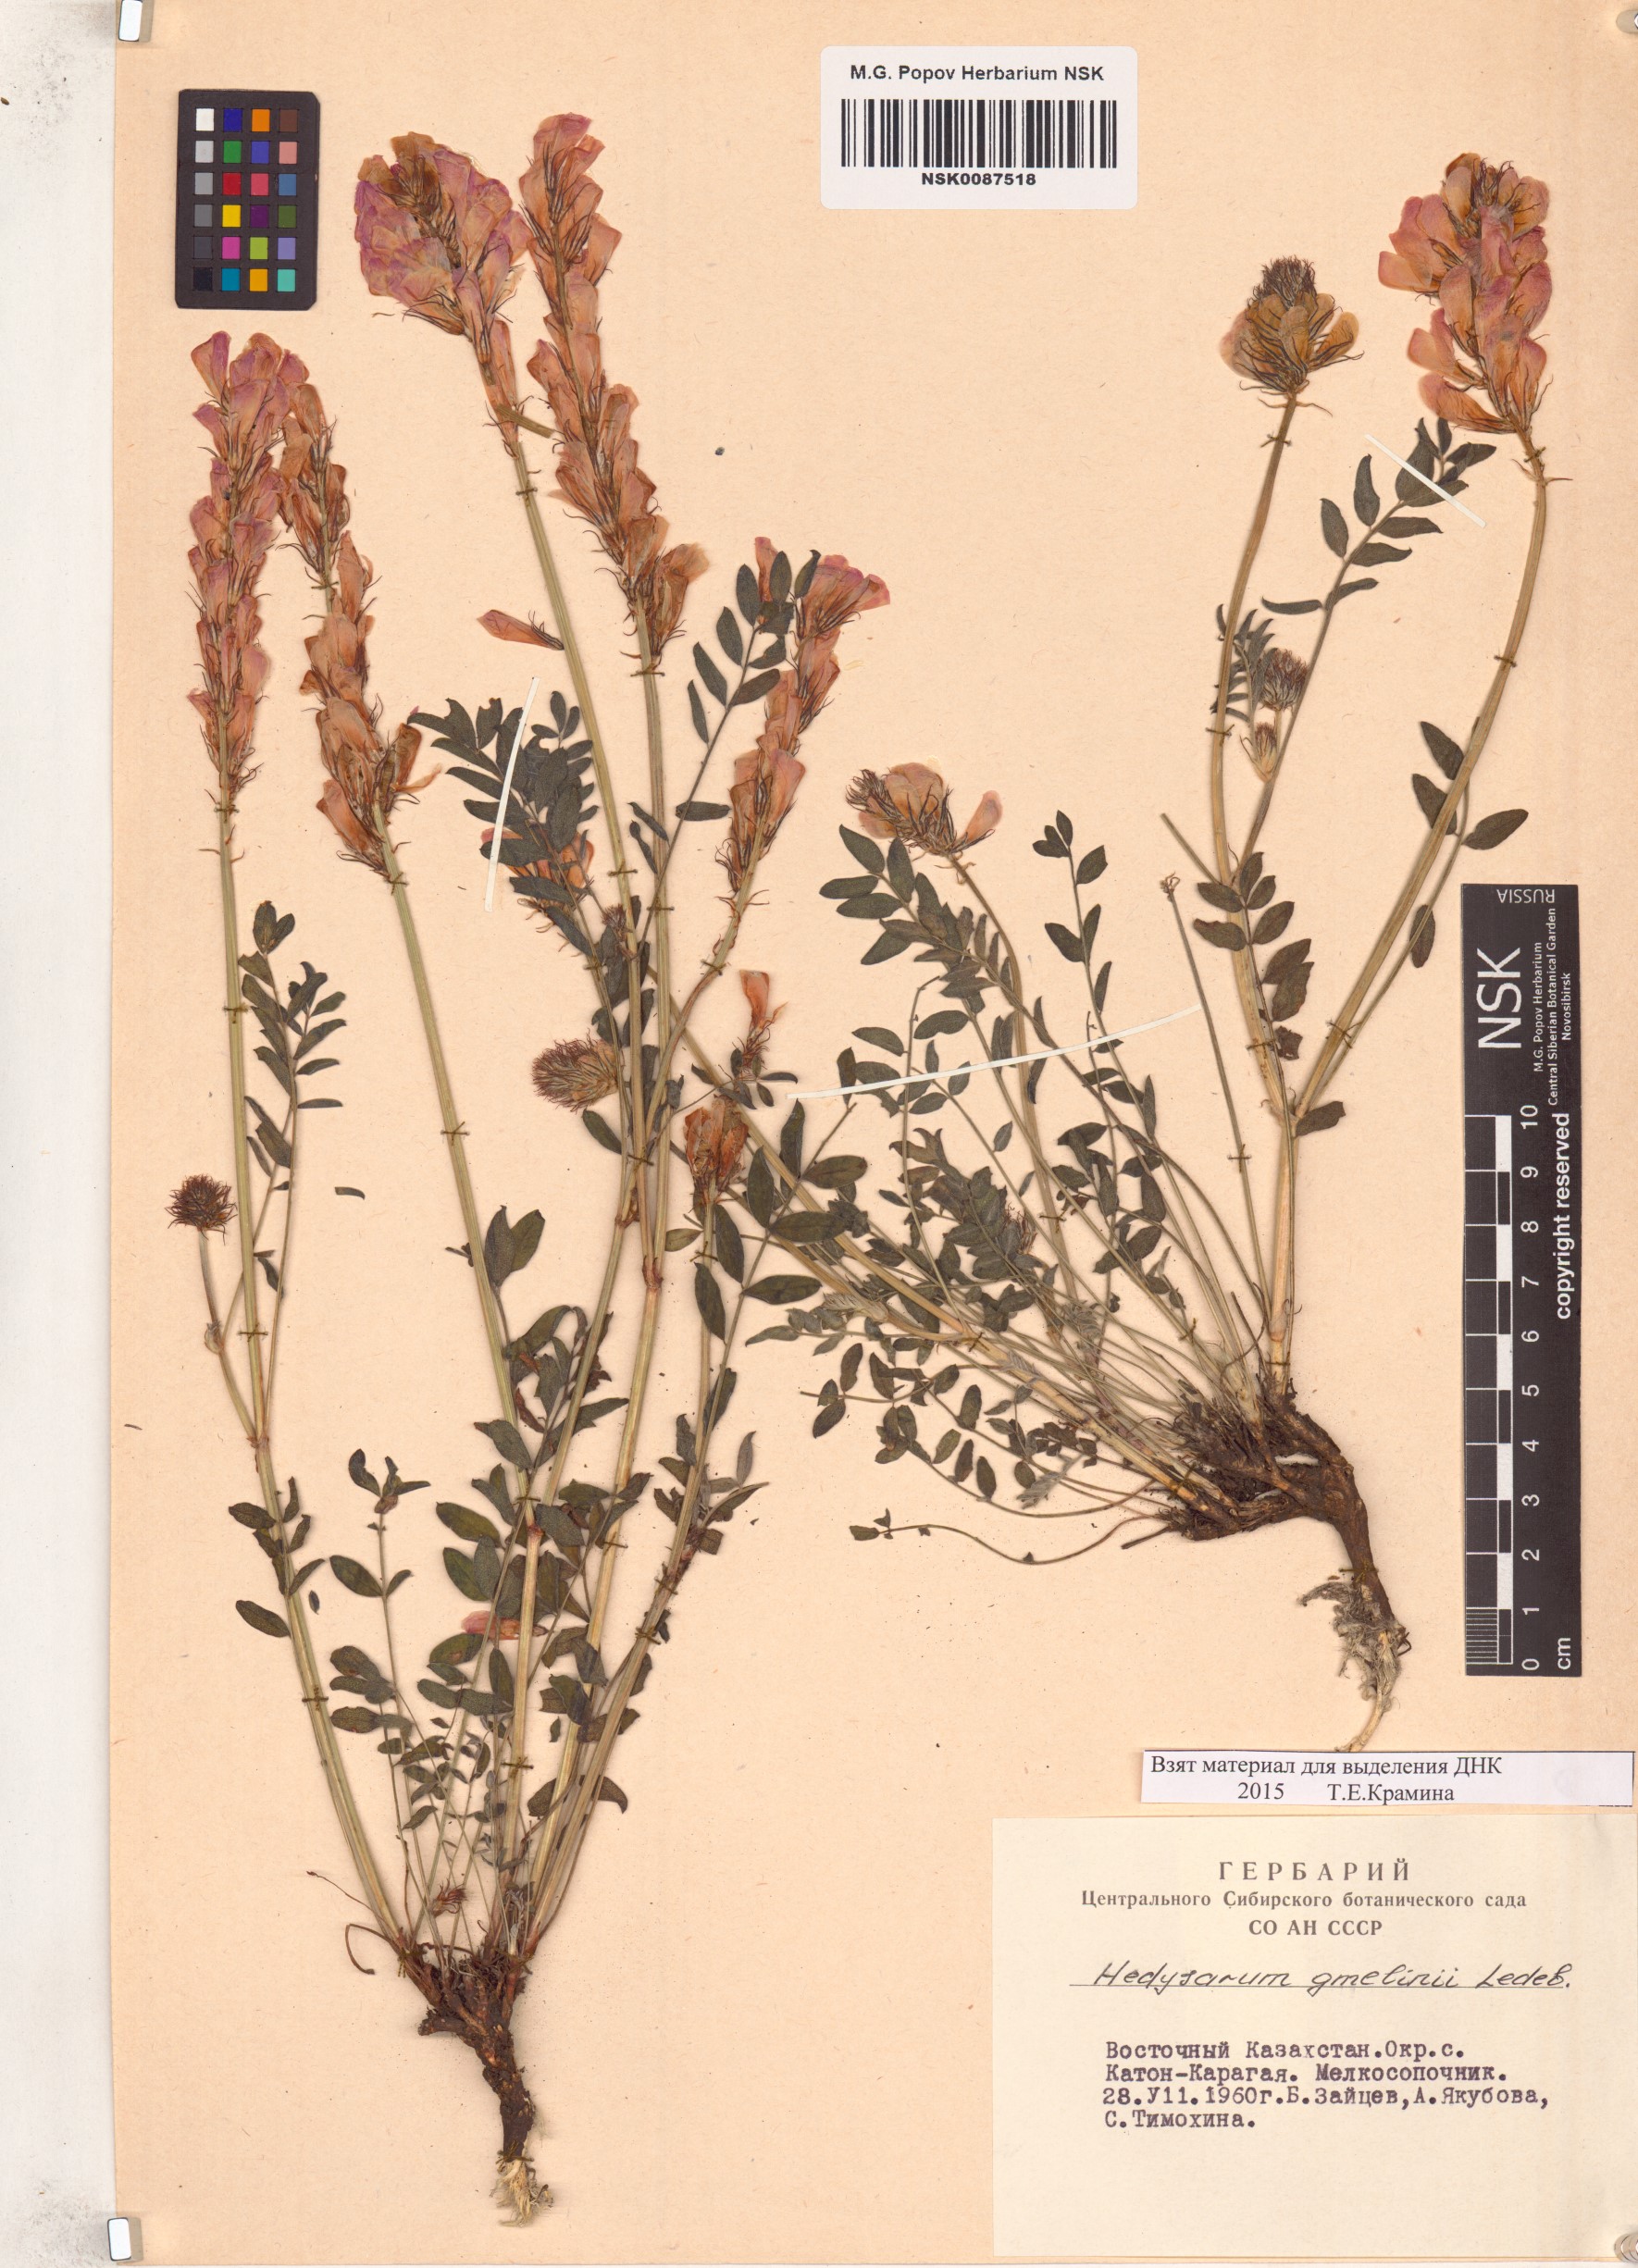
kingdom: Plantae
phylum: Tracheophyta
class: Magnoliopsida
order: Fabales
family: Fabaceae
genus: Hedysarum
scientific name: Hedysarum gmelinii
